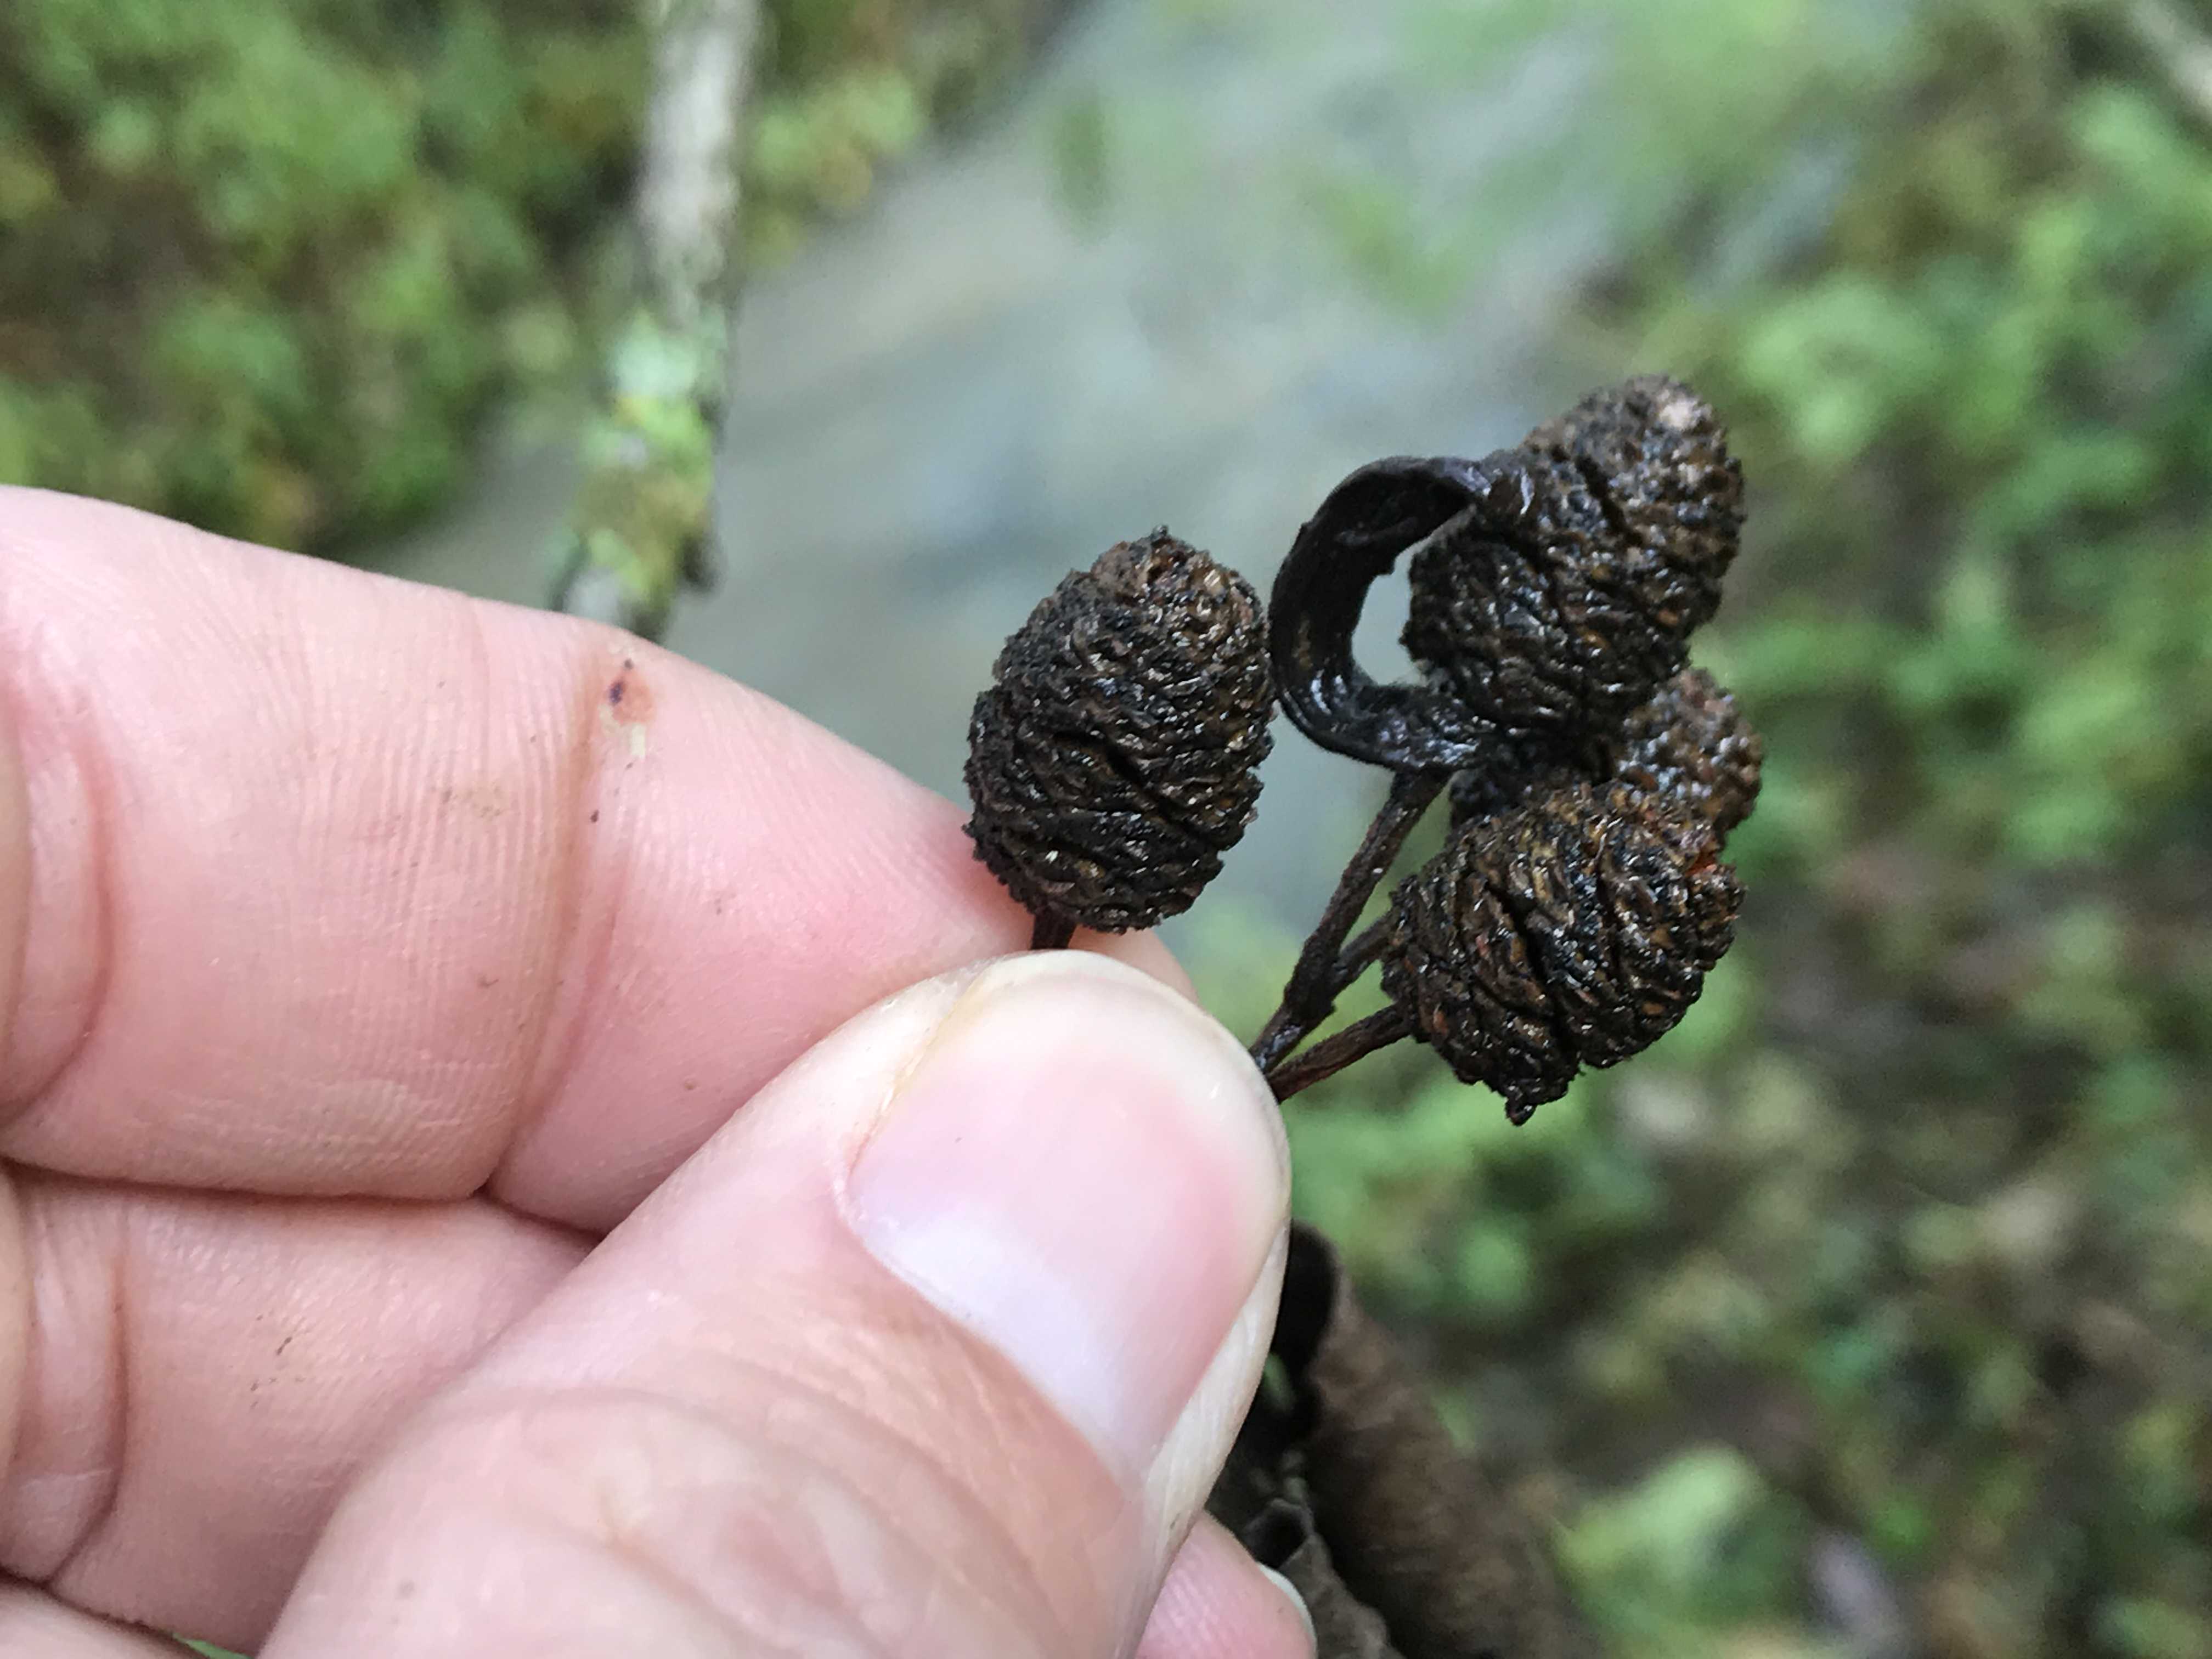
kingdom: Fungi
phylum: Ascomycota
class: Taphrinomycetes
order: Taphrinales
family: Taphrinaceae
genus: Taphrina
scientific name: Taphrina alni
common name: Alder tongue
